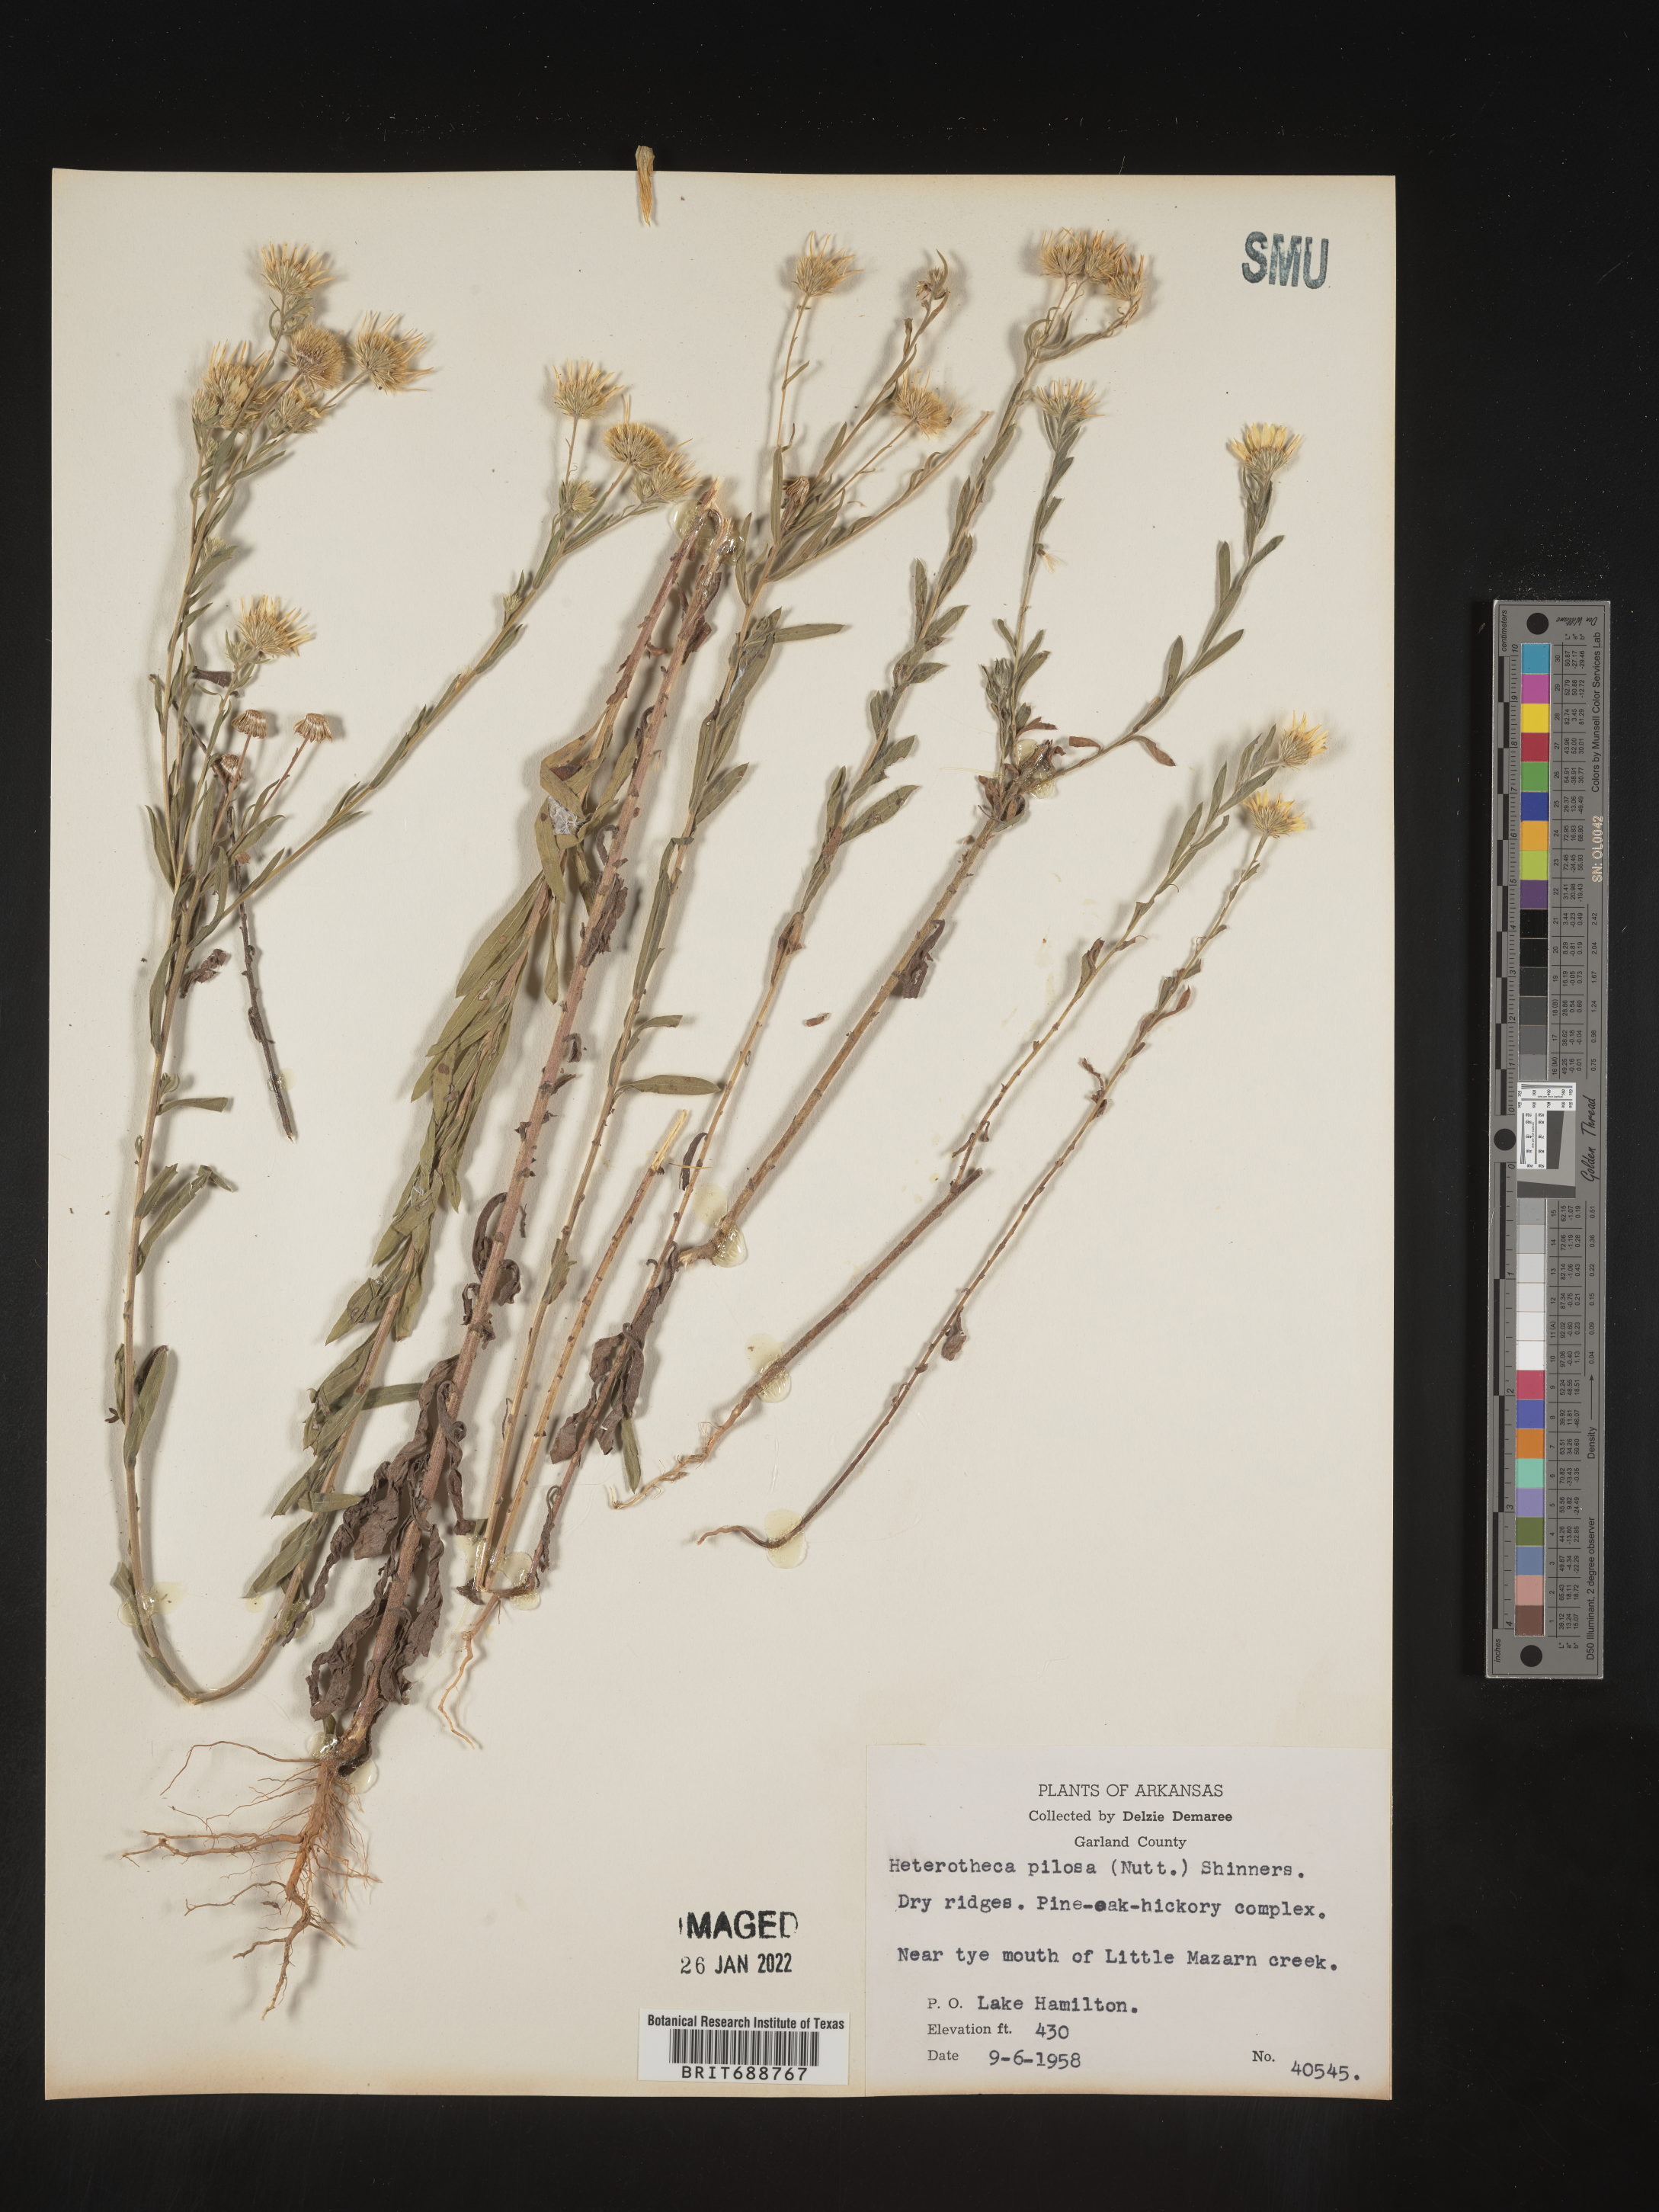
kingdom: Plantae
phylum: Tracheophyta
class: Magnoliopsida
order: Asterales
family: Asteraceae
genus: Bradburia
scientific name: Bradburia pilosa
